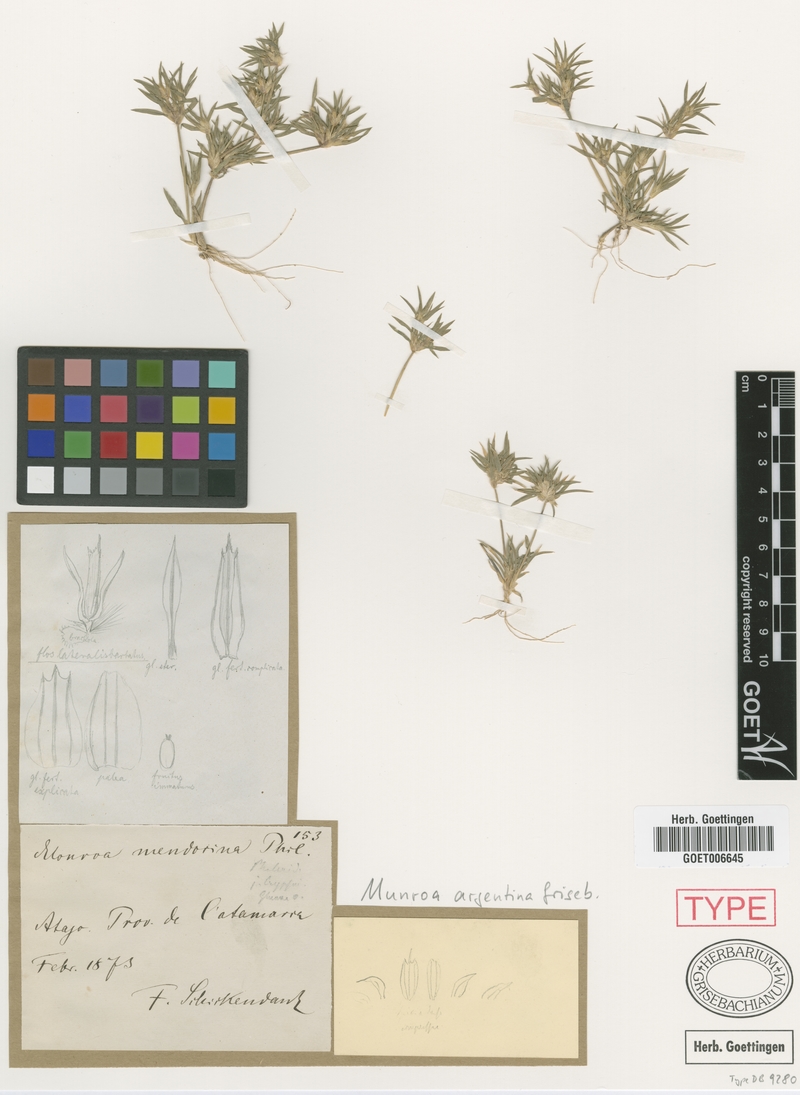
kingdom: Plantae
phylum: Tracheophyta
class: Liliopsida
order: Poales
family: Poaceae
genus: Munroa
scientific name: Munroa argentina
